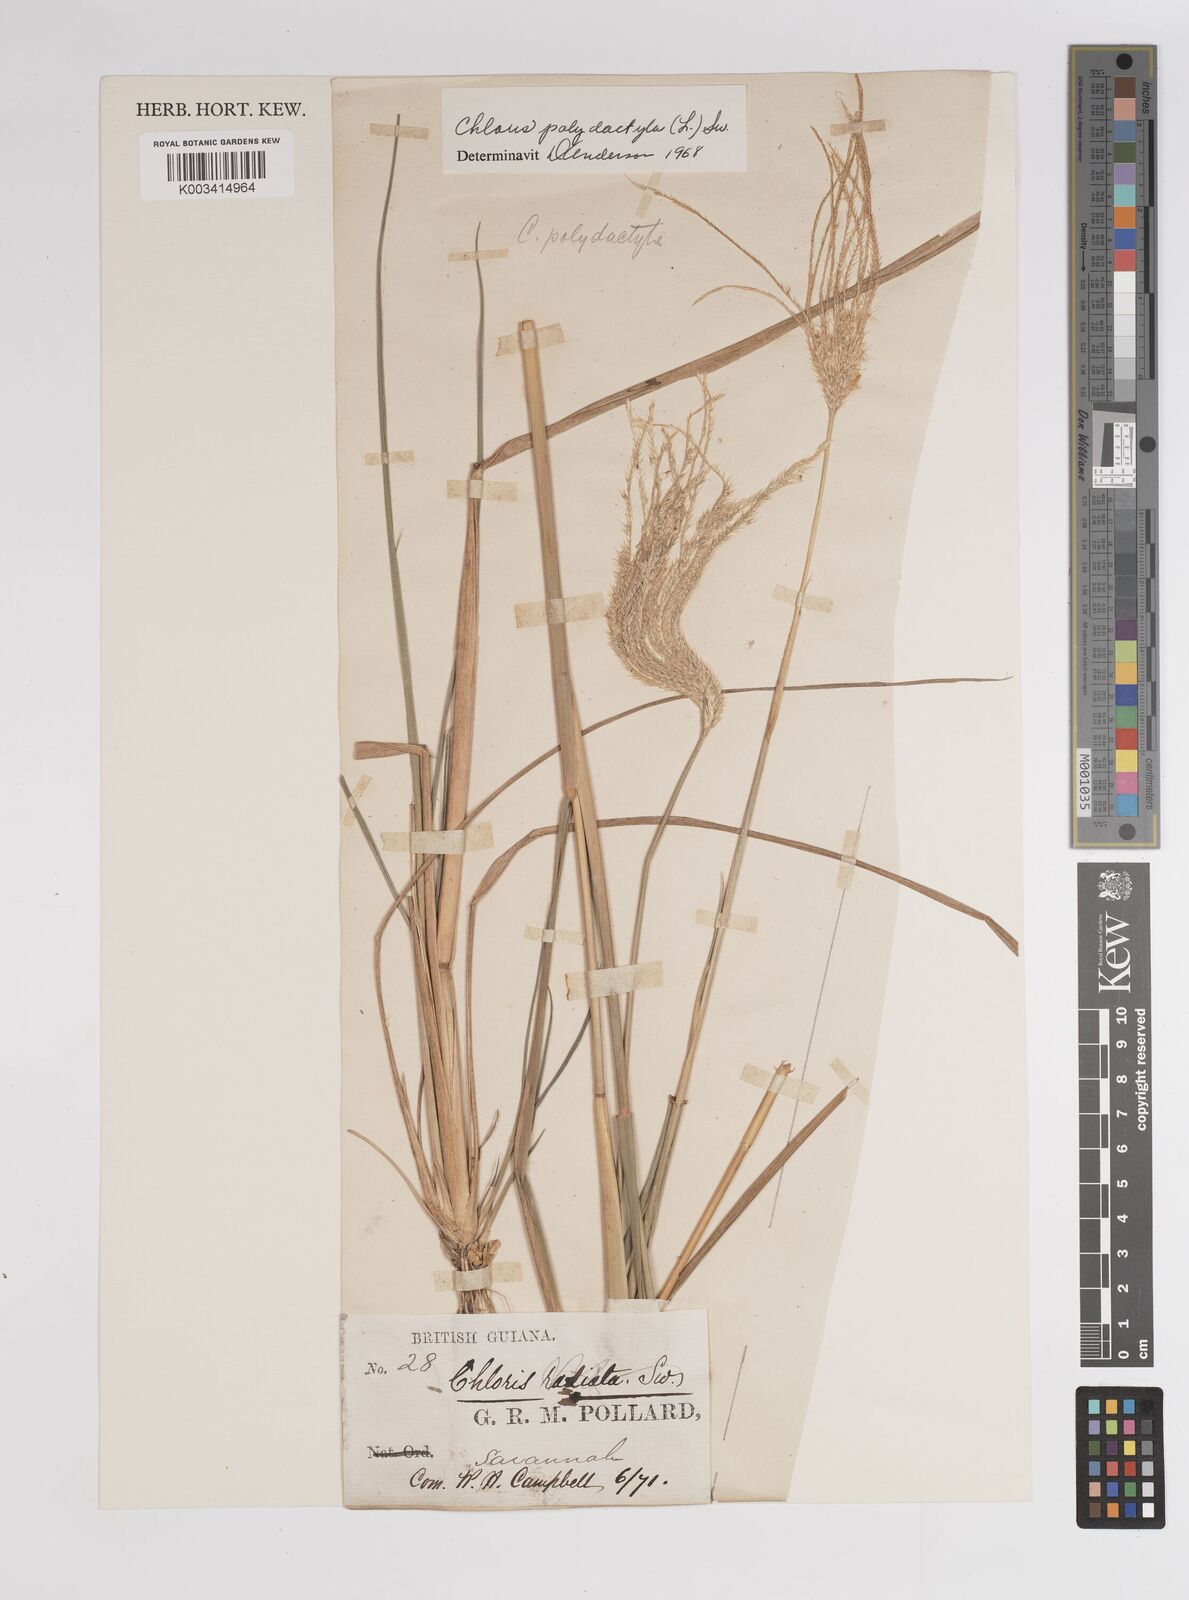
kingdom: Plantae
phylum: Tracheophyta
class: Liliopsida
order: Poales
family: Poaceae
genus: Stapfochloa
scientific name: Stapfochloa elata
